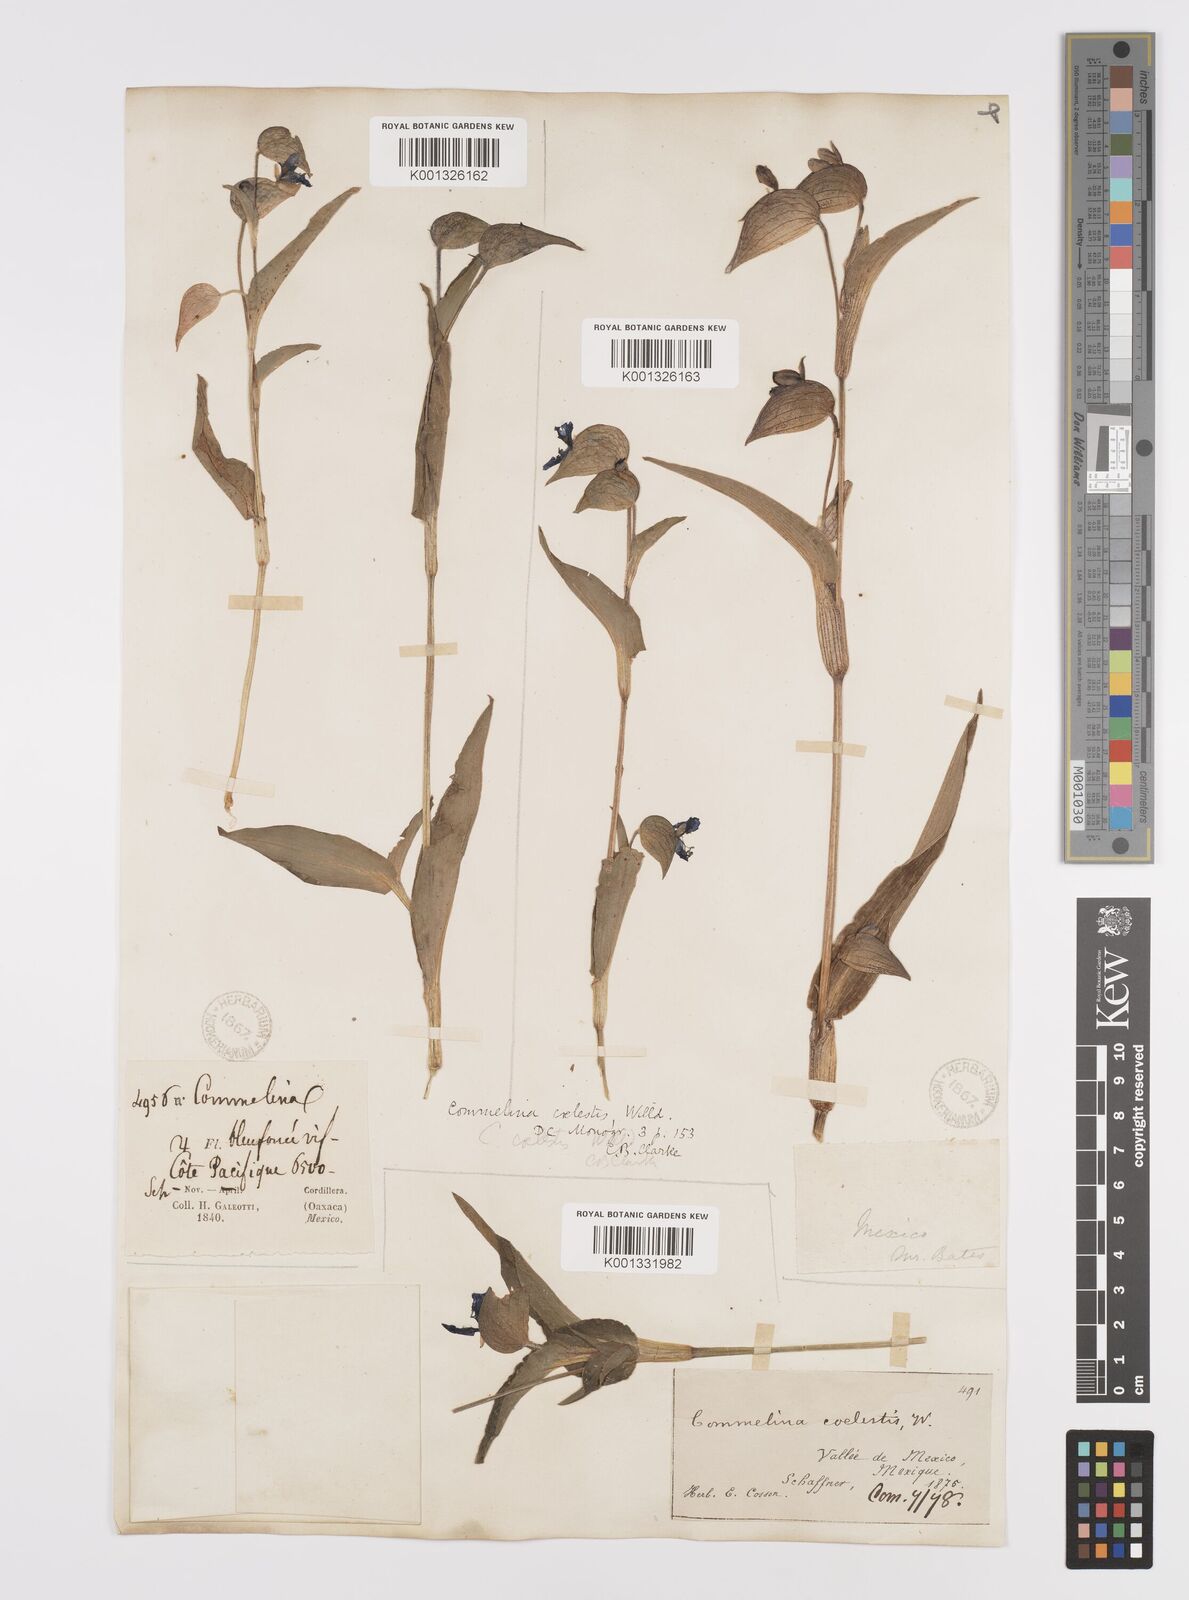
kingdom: Plantae
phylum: Tracheophyta
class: Liliopsida
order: Commelinales
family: Commelinaceae
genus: Commelina
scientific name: Commelina tuberosa
